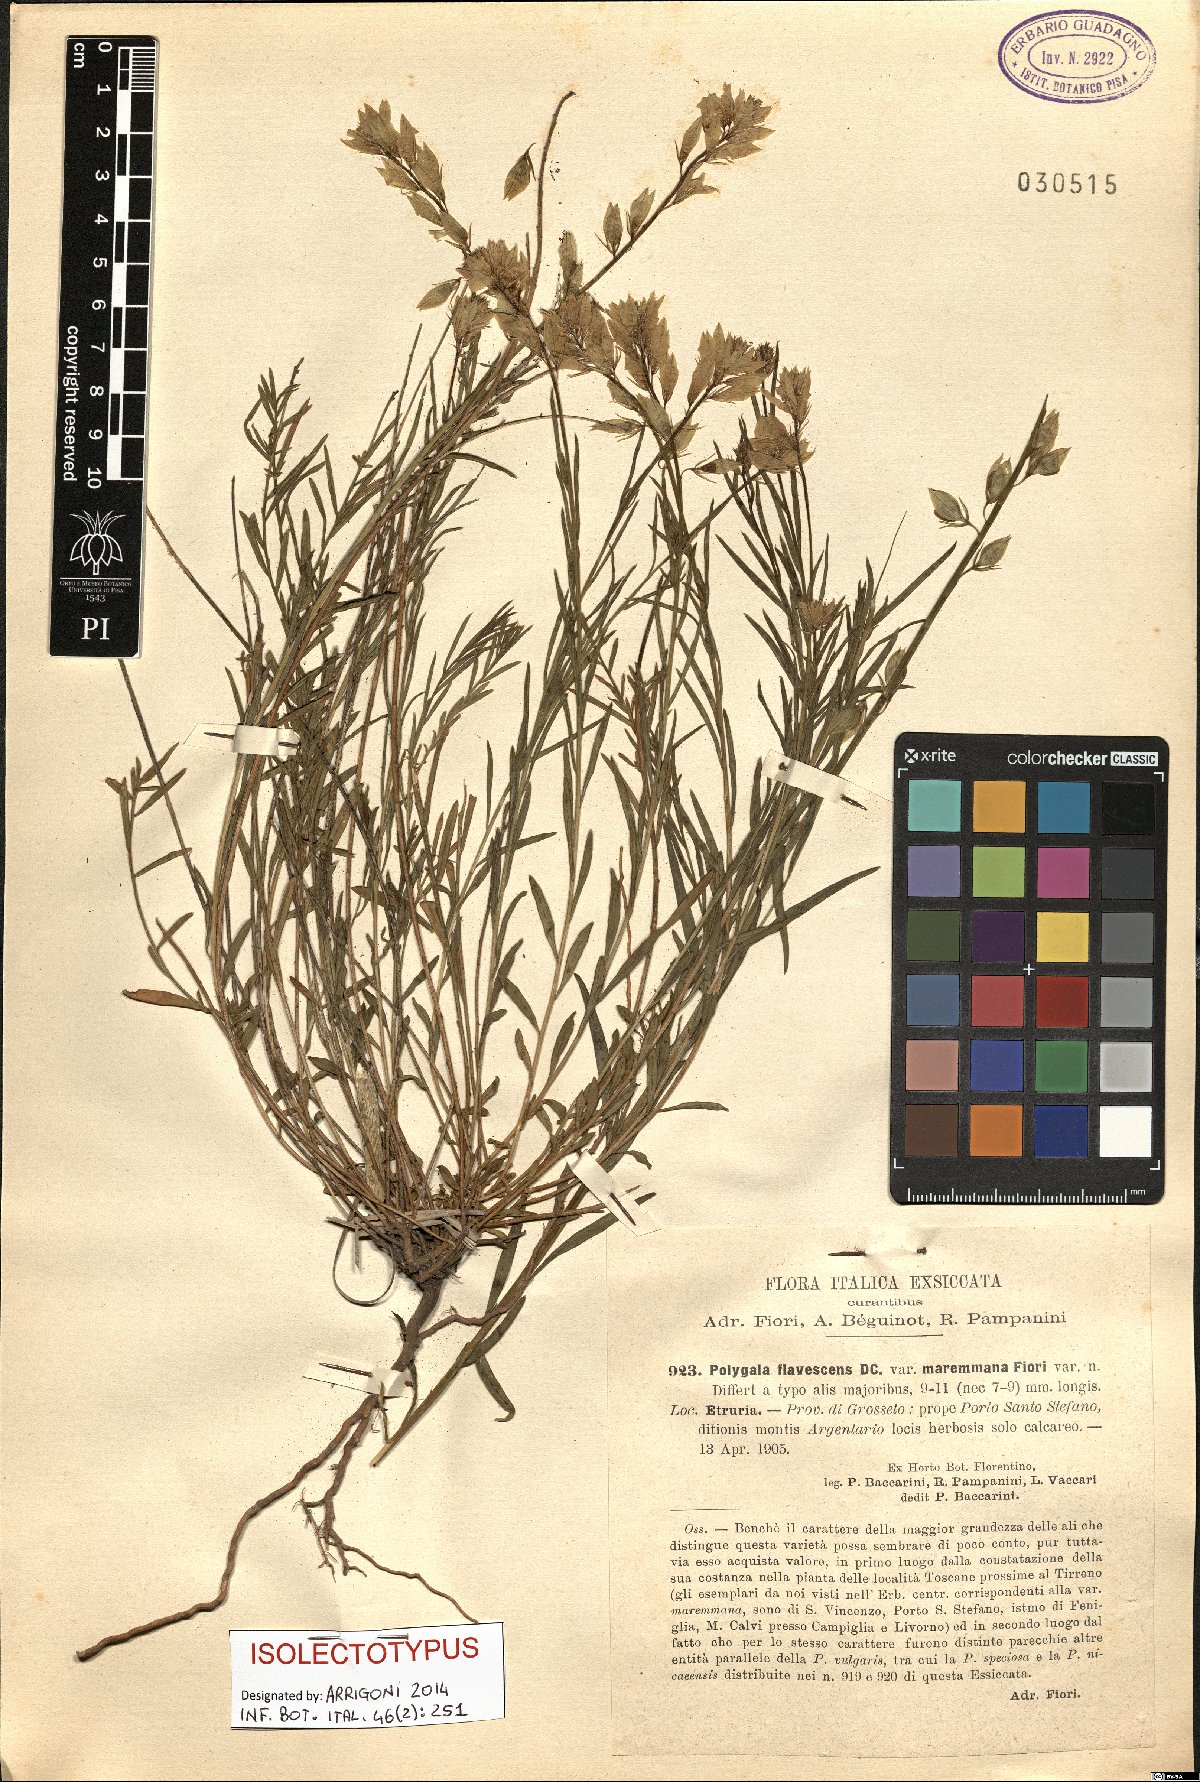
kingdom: Plantae
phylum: Tracheophyta
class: Magnoliopsida
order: Fabales
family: Polygalaceae
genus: Polygala
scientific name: Polygala flavescens
